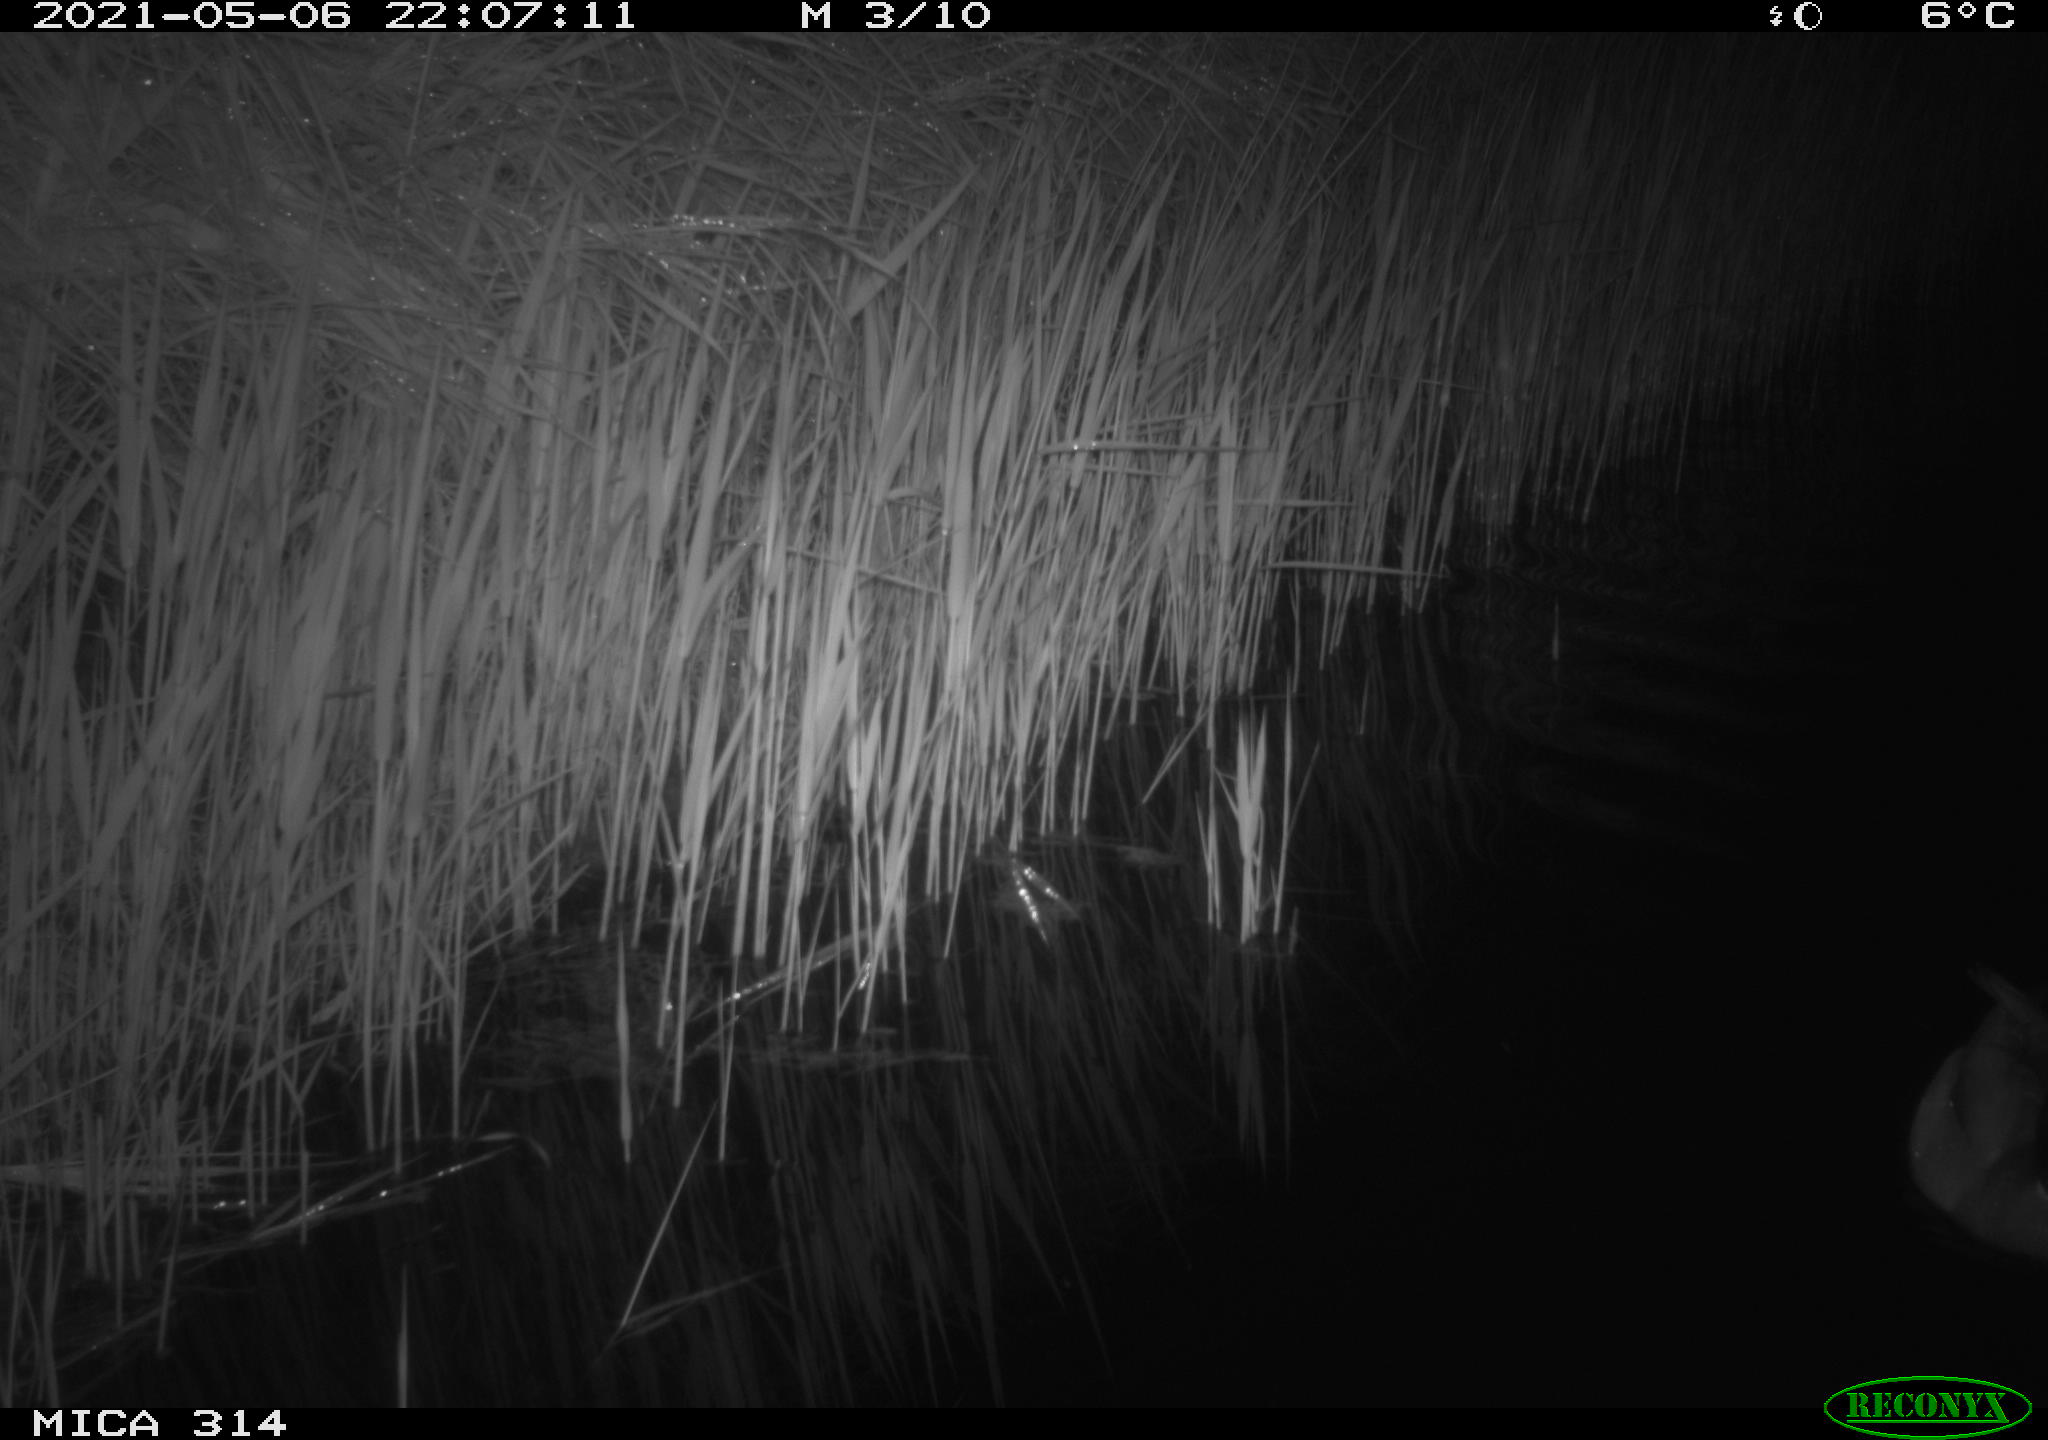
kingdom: Animalia
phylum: Chordata
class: Aves
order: Anseriformes
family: Anatidae
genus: Anas
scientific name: Anas platyrhynchos
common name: Mallard
